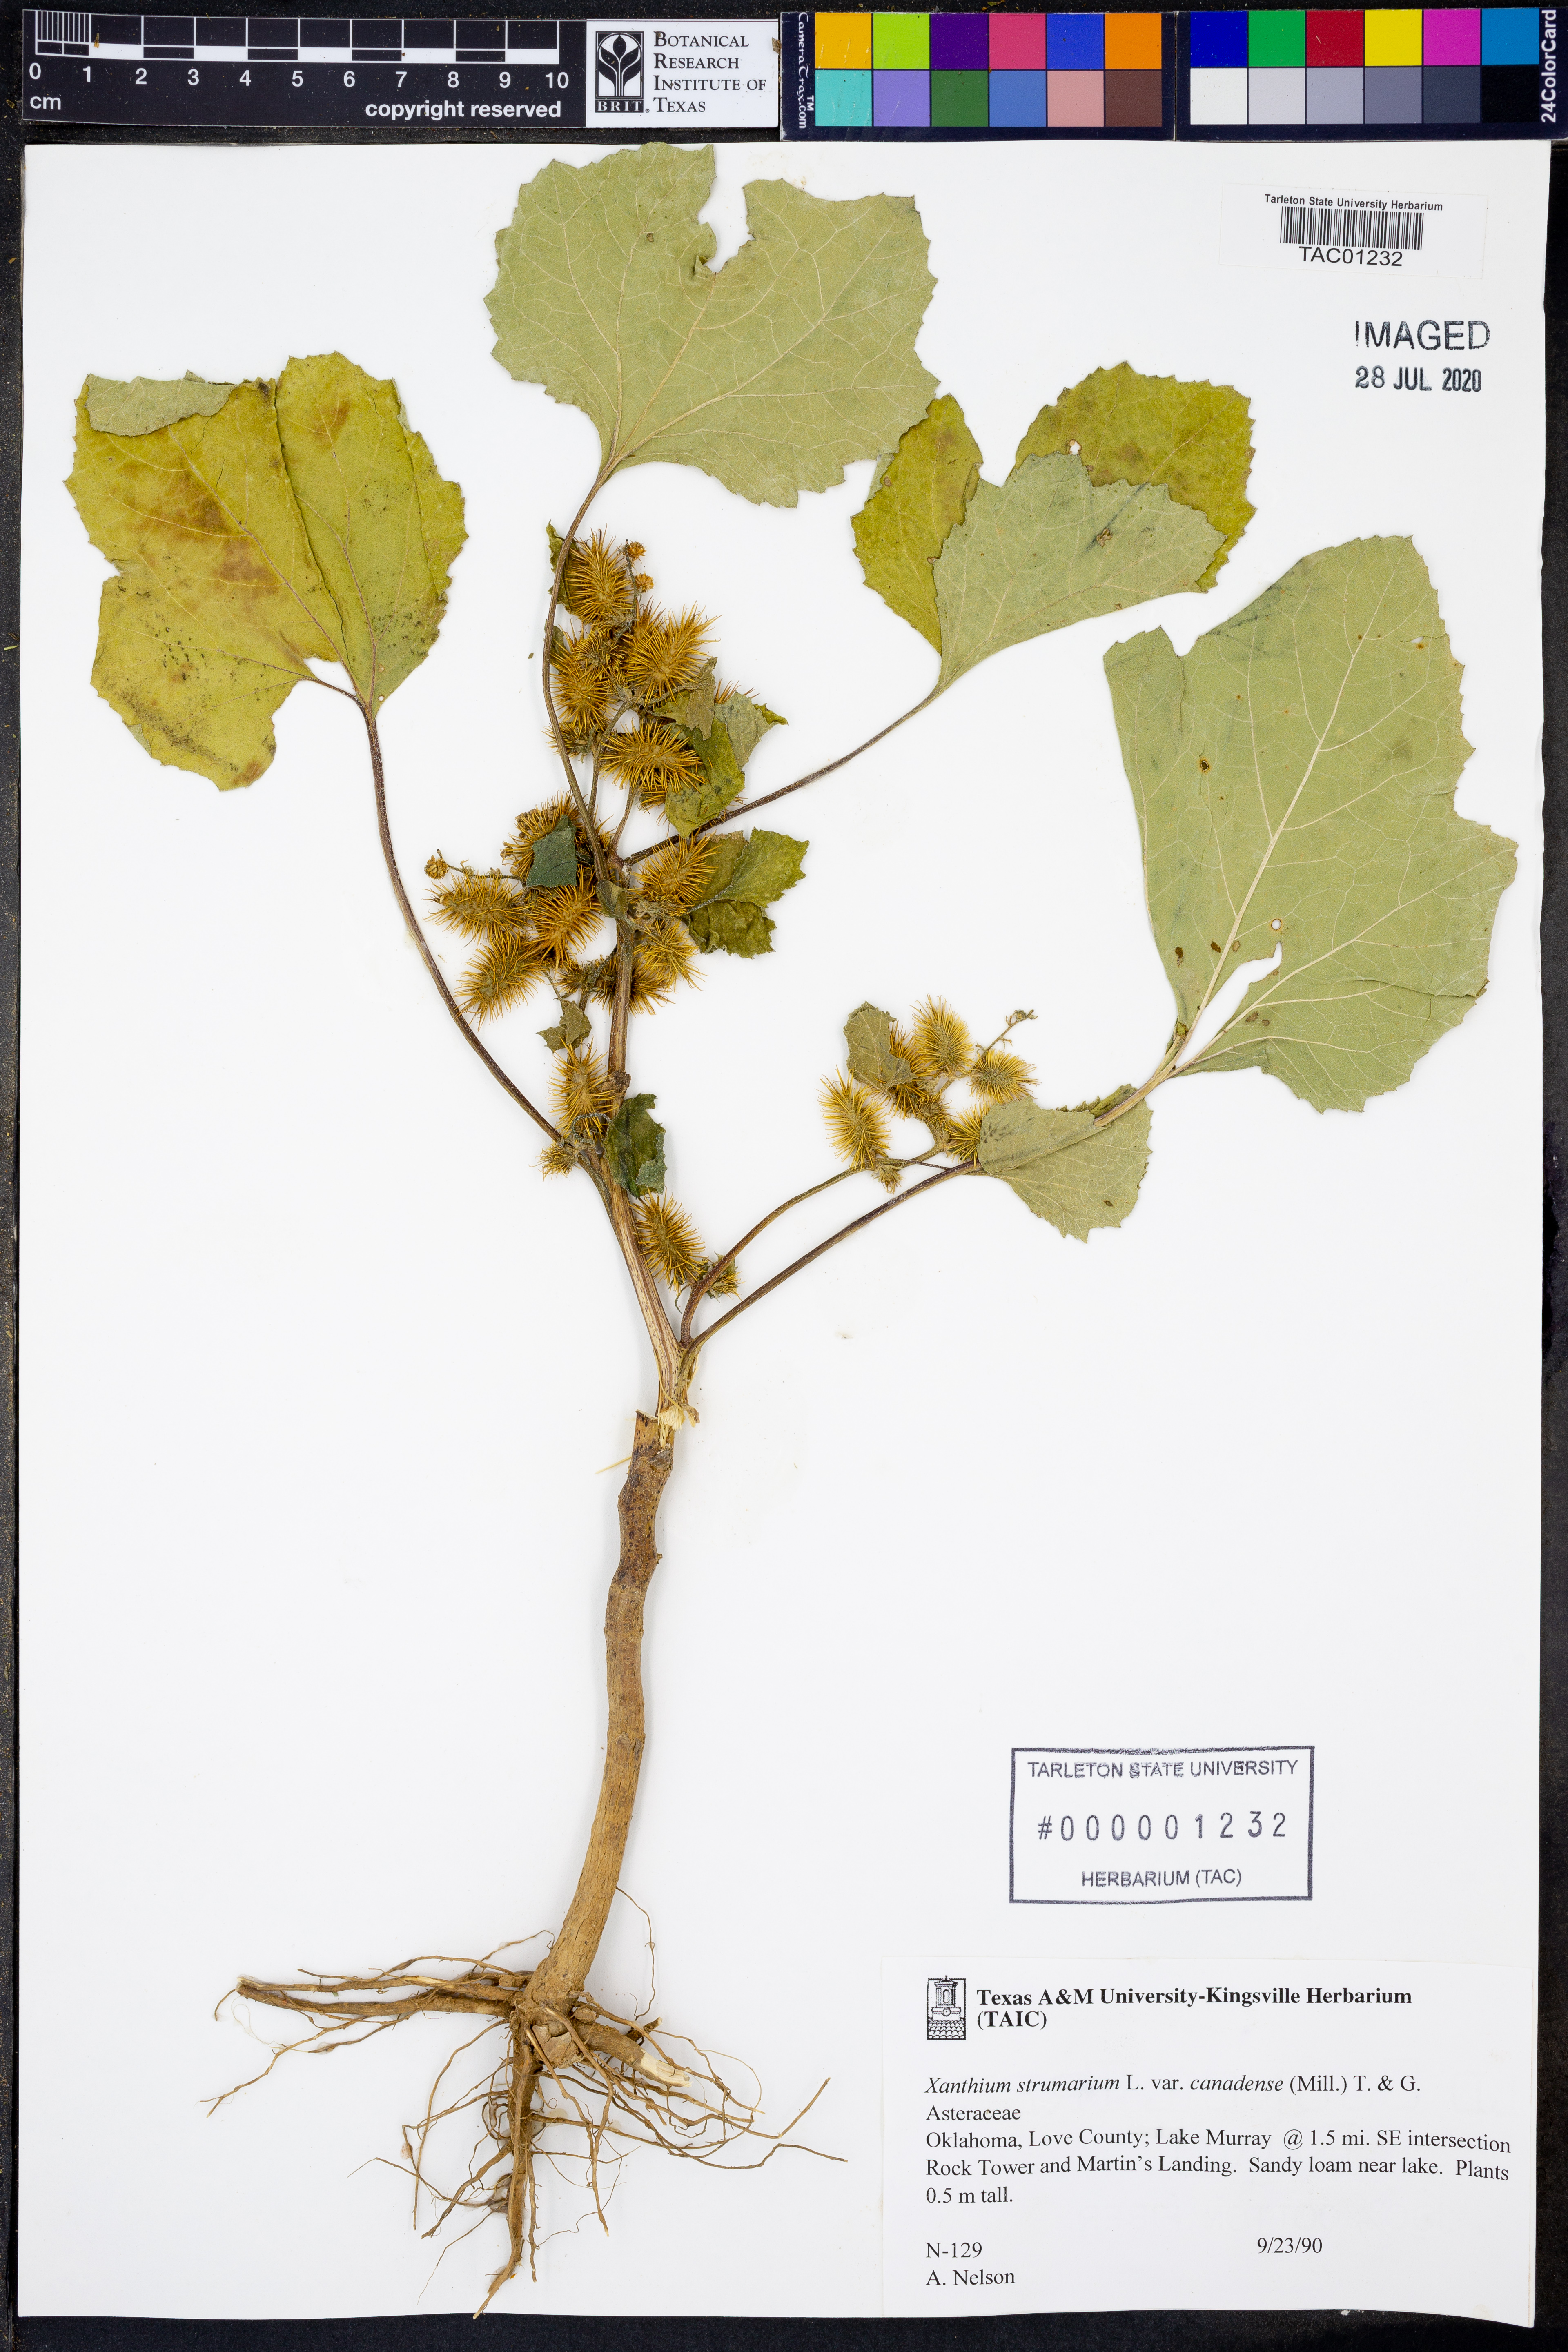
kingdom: Plantae
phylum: Tracheophyta
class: Magnoliopsida
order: Asterales
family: Asteraceae
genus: Xanthium
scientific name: Xanthium orientale
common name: Californian burr
